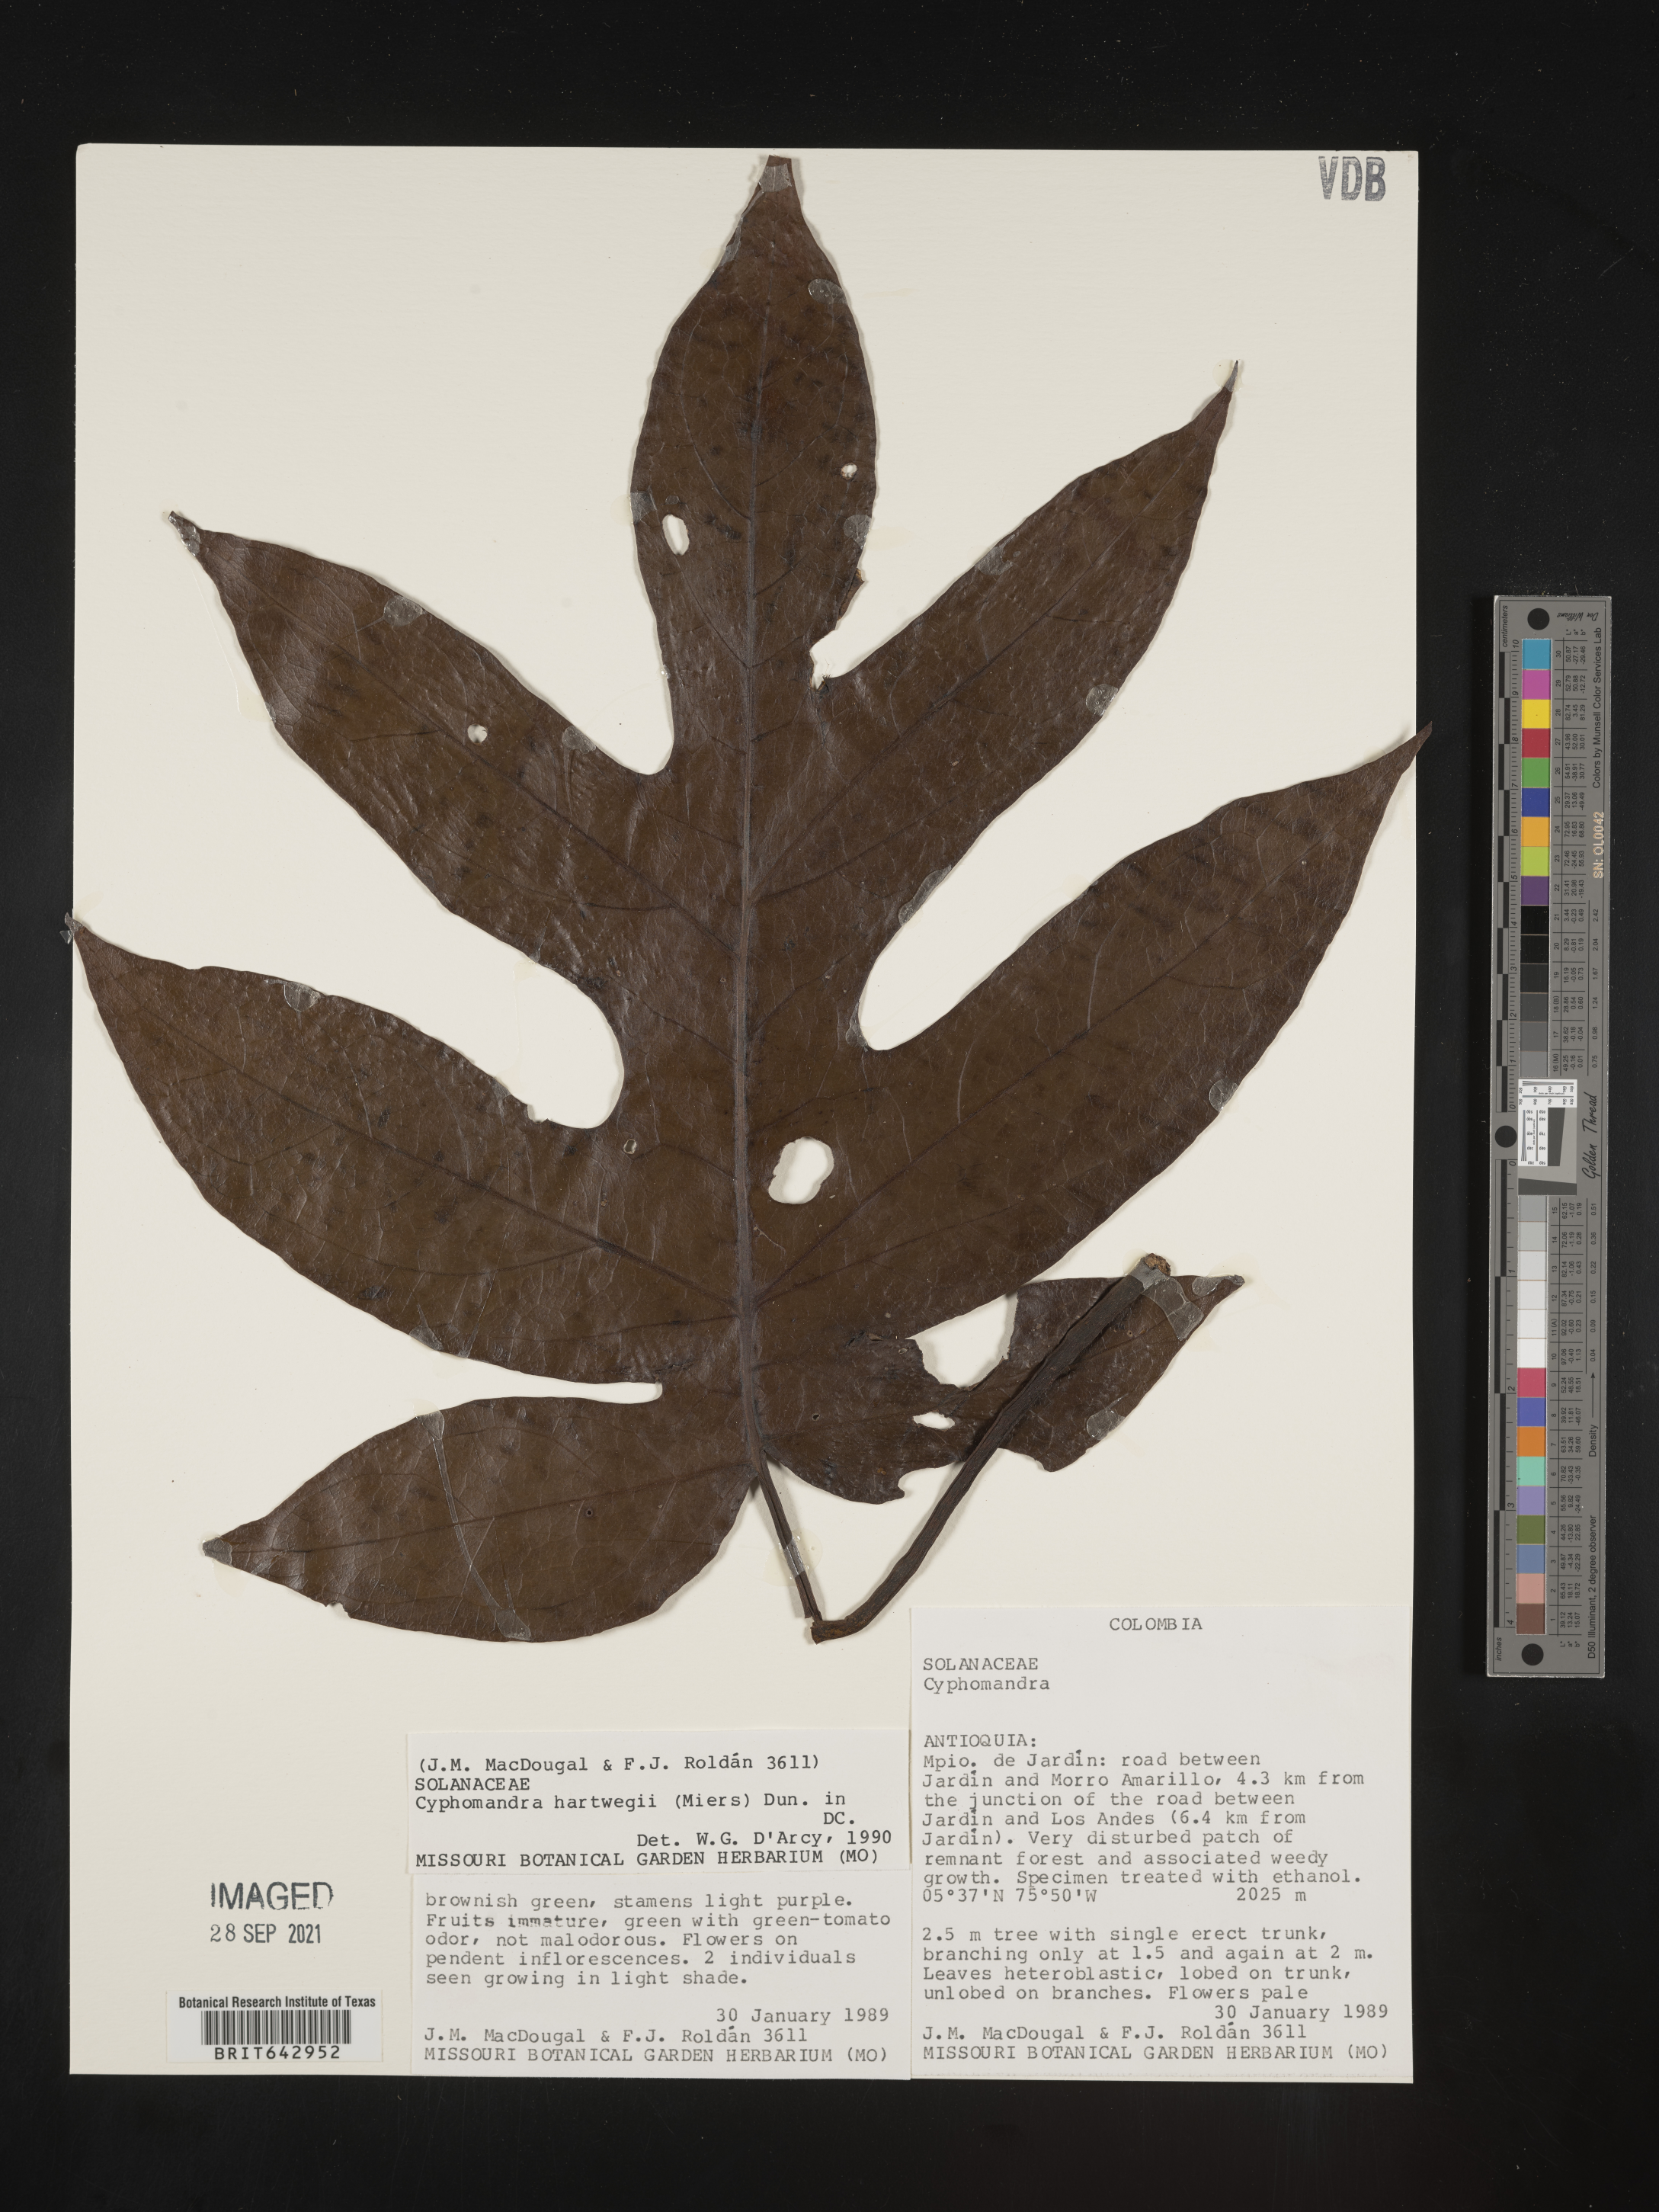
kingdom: Plantae
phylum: Tracheophyta
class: Magnoliopsida
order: Solanales
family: Solanaceae
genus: Solanum
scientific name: Solanum
